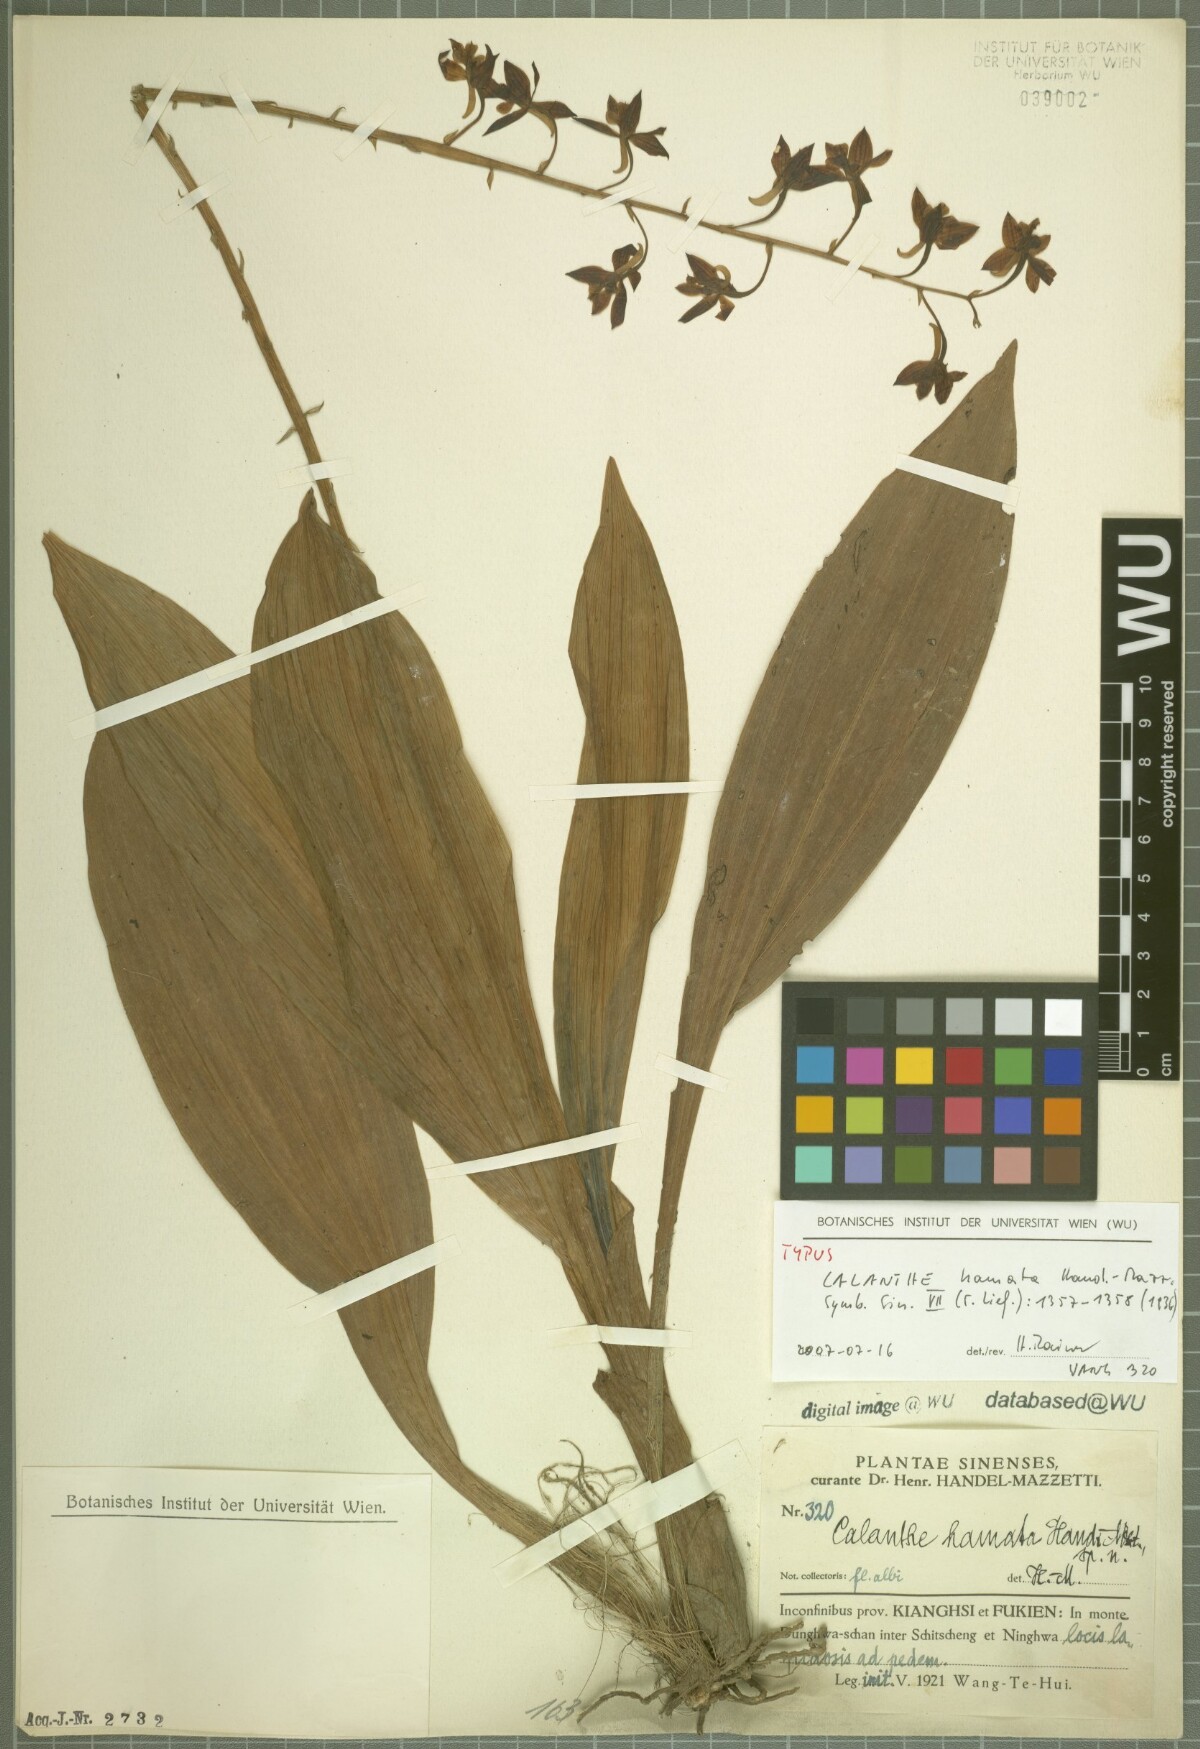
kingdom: Plantae
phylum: Tracheophyta
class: Liliopsida
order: Asparagales
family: Orchidaceae
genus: Calanthe
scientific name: Calanthe graciliflora
